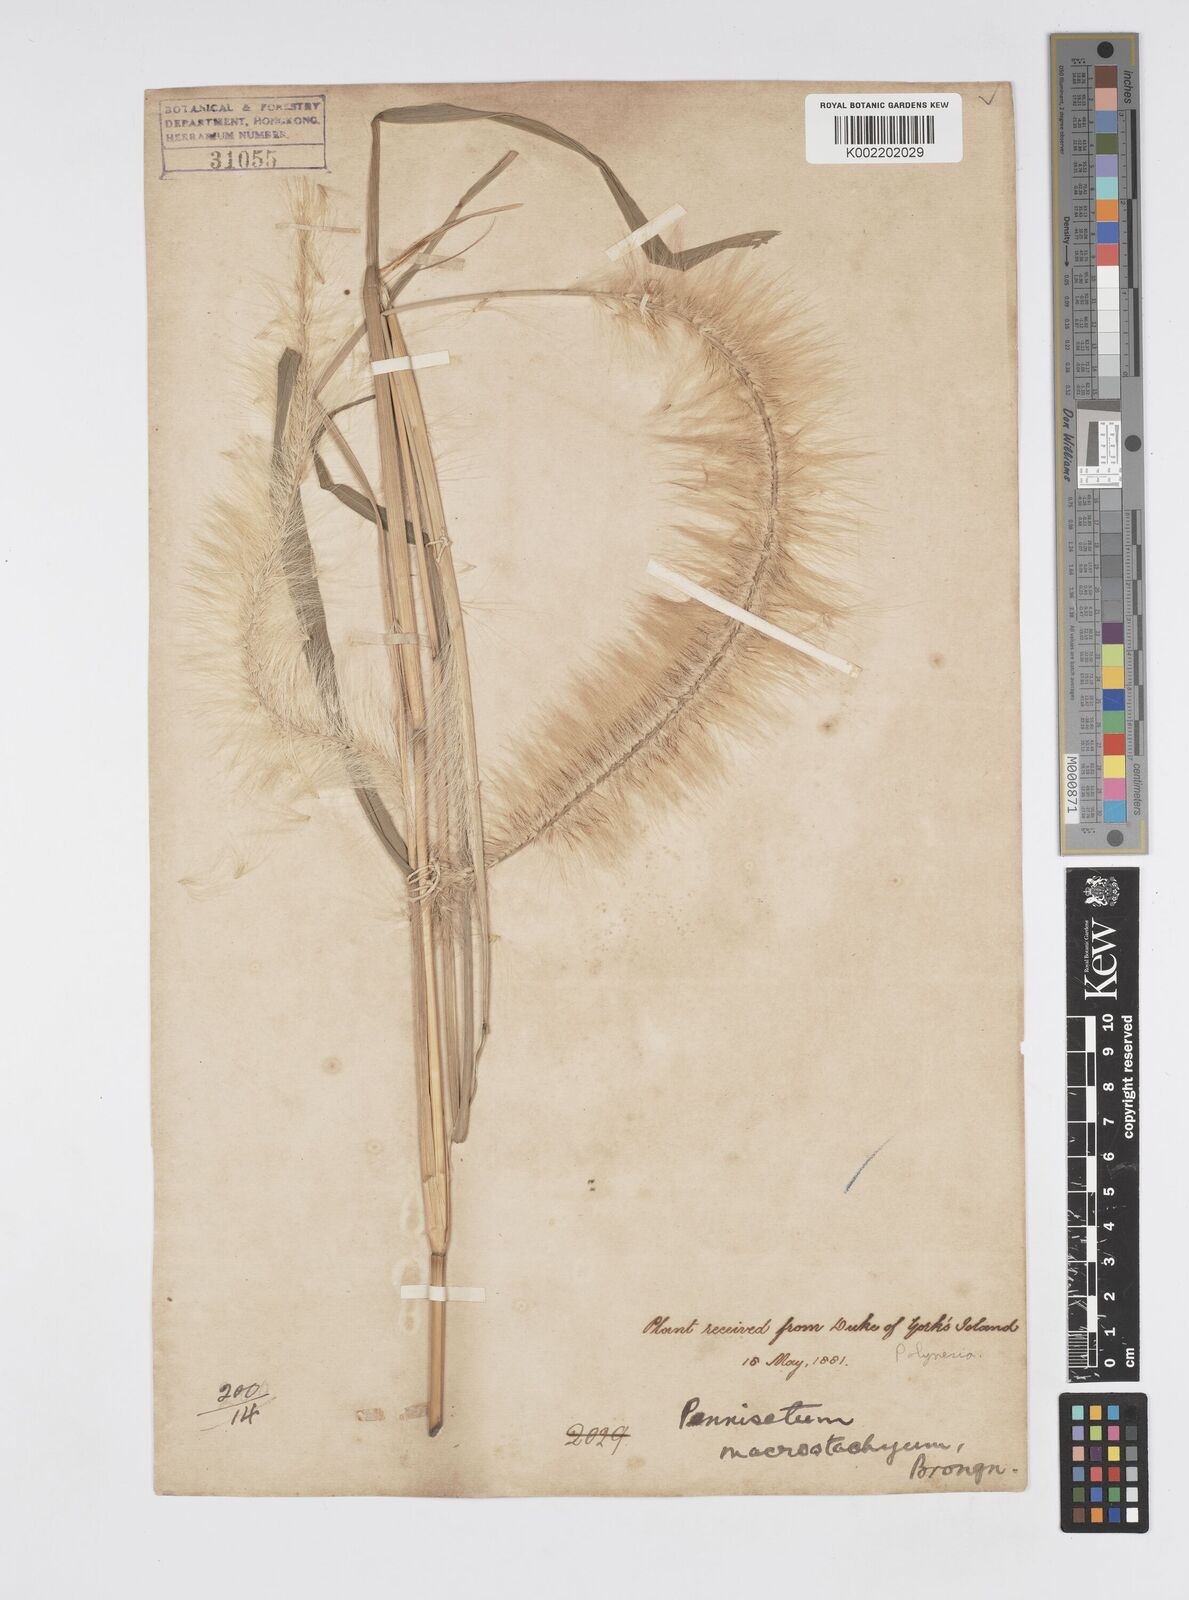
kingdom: Plantae
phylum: Tracheophyta
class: Liliopsida
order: Poales
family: Poaceae
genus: Cenchrus
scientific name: Cenchrus purpureus
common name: Elephant grass
